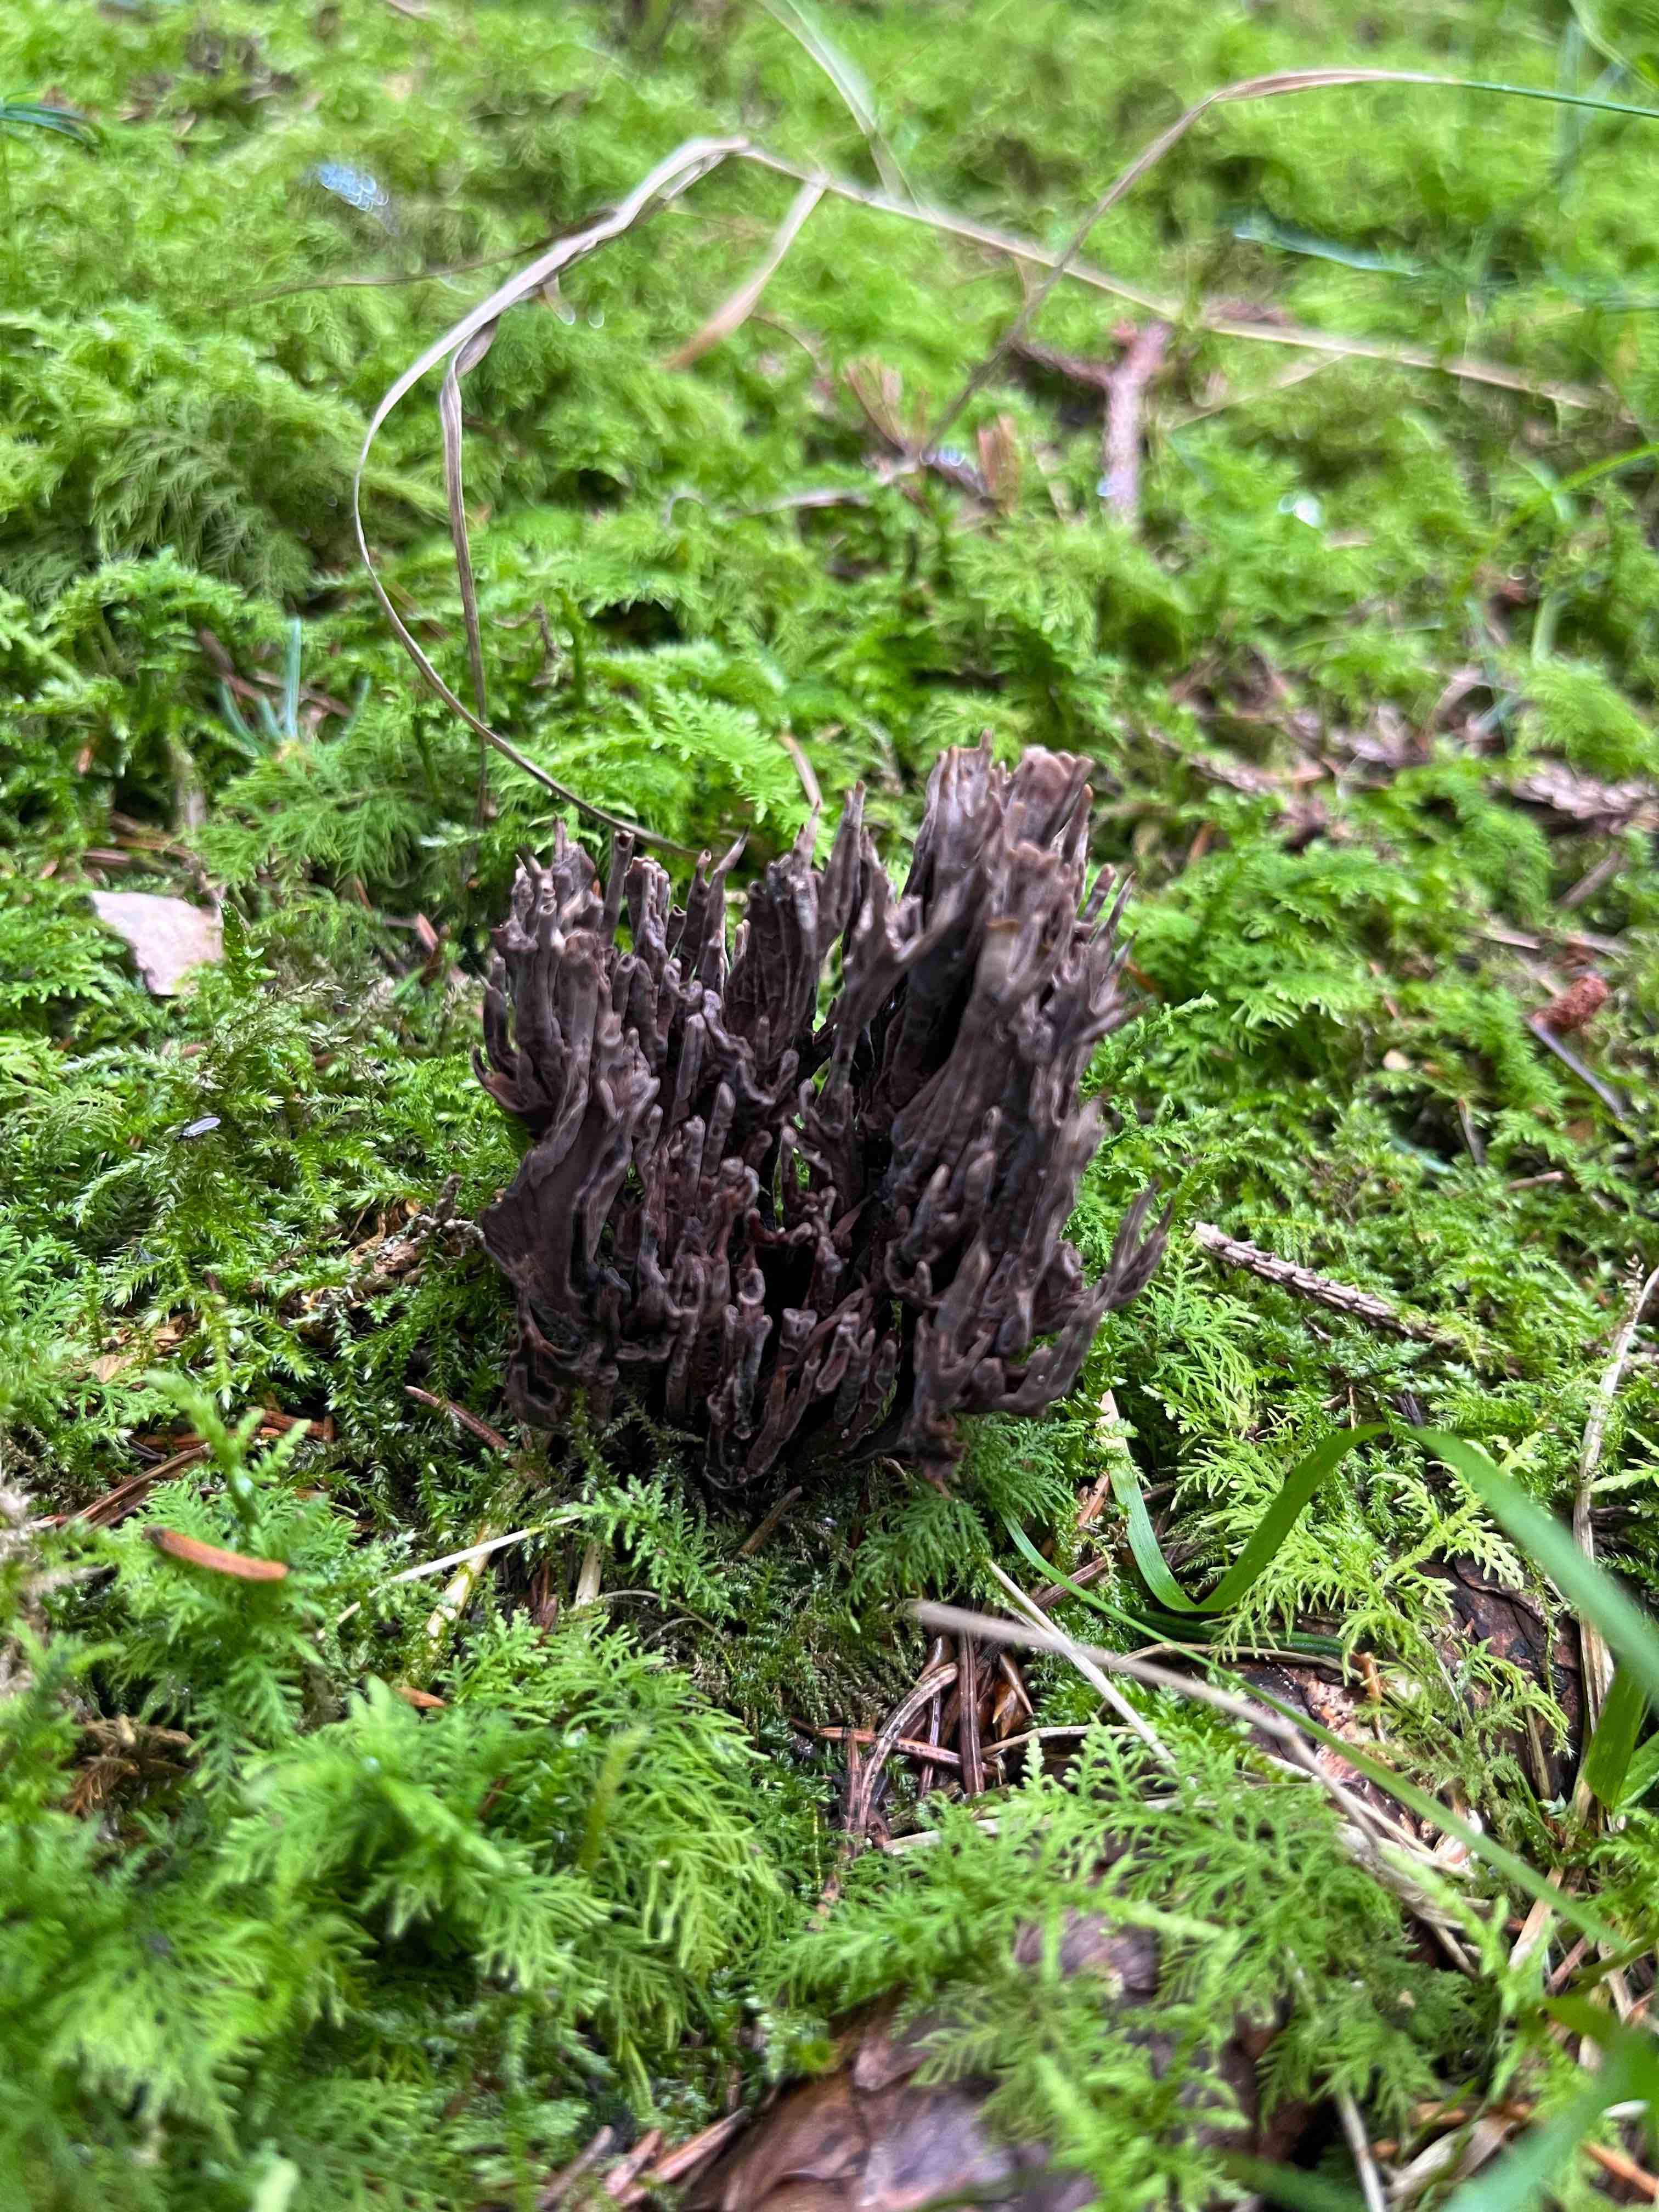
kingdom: Fungi
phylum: Basidiomycota
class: Agaricomycetes
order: Thelephorales
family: Thelephoraceae
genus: Thelephora
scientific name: Thelephora palmata
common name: grenet frynsesvamp
